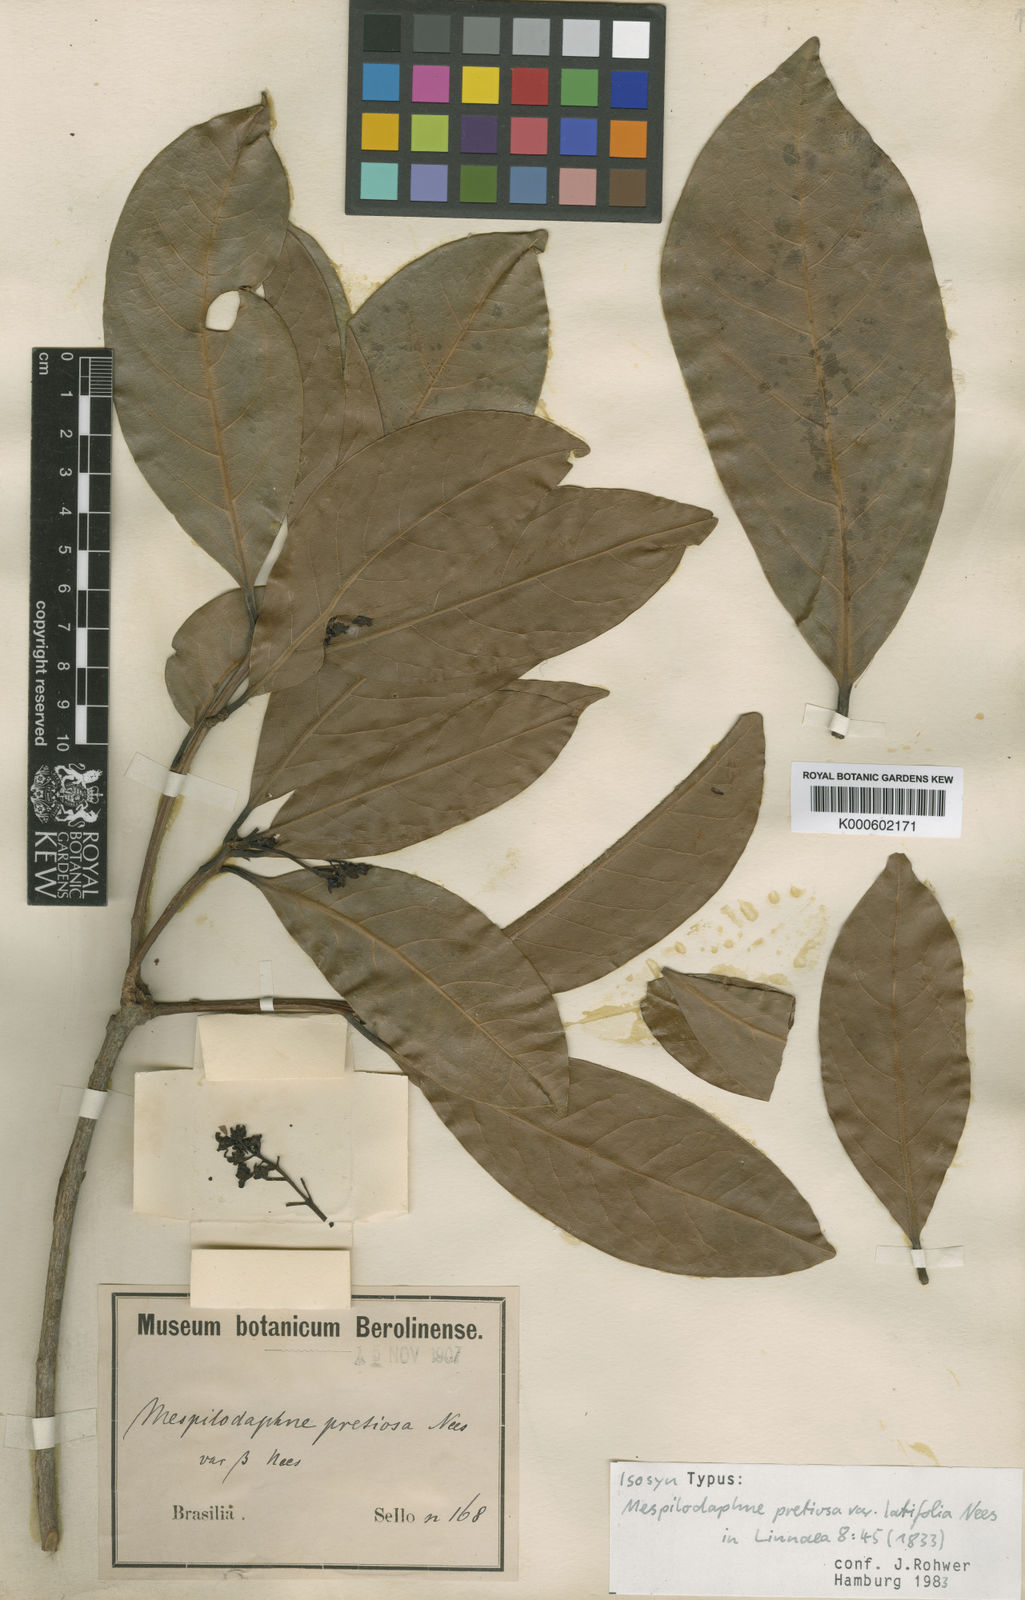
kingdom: Plantae
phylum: Tracheophyta
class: Magnoliopsida
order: Laurales
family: Lauraceae
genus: Mespilodaphne
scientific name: Mespilodaphne quixos
